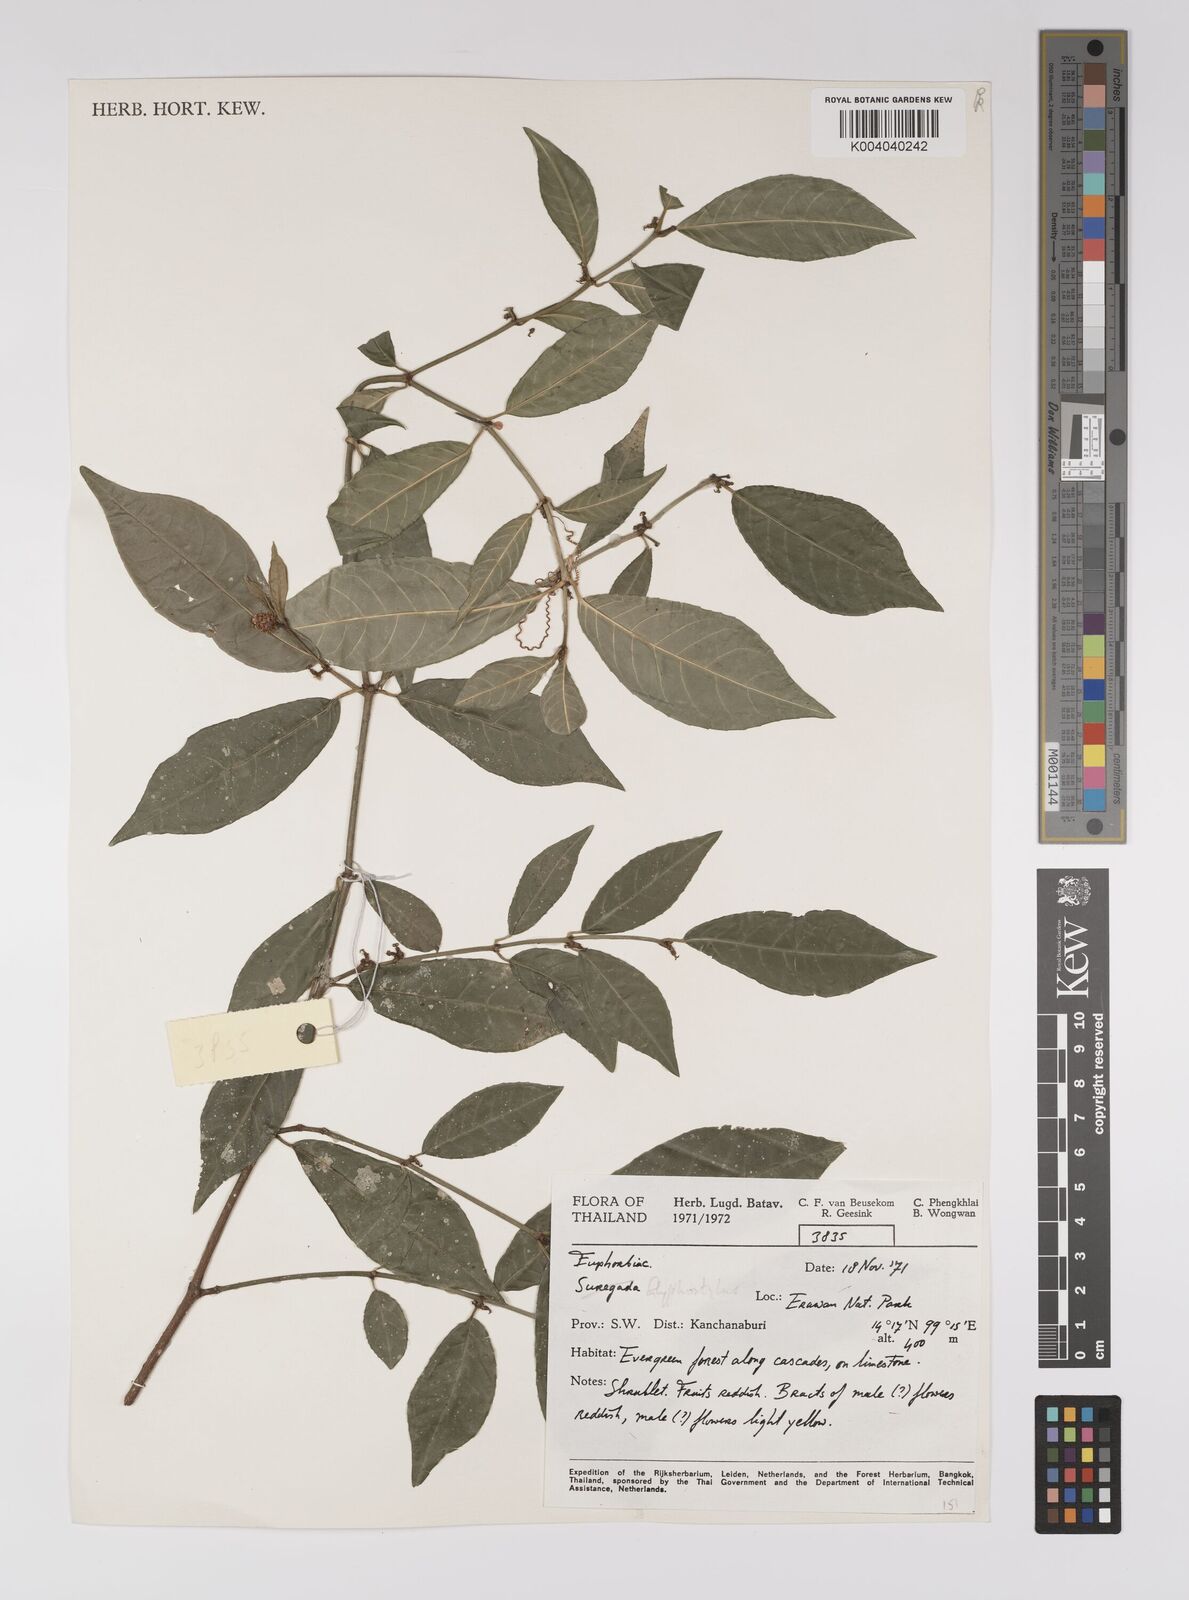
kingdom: Plantae
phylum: Tracheophyta
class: Magnoliopsida
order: Malpighiales
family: Euphorbiaceae
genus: Excoecaria
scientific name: Excoecaria laotica
